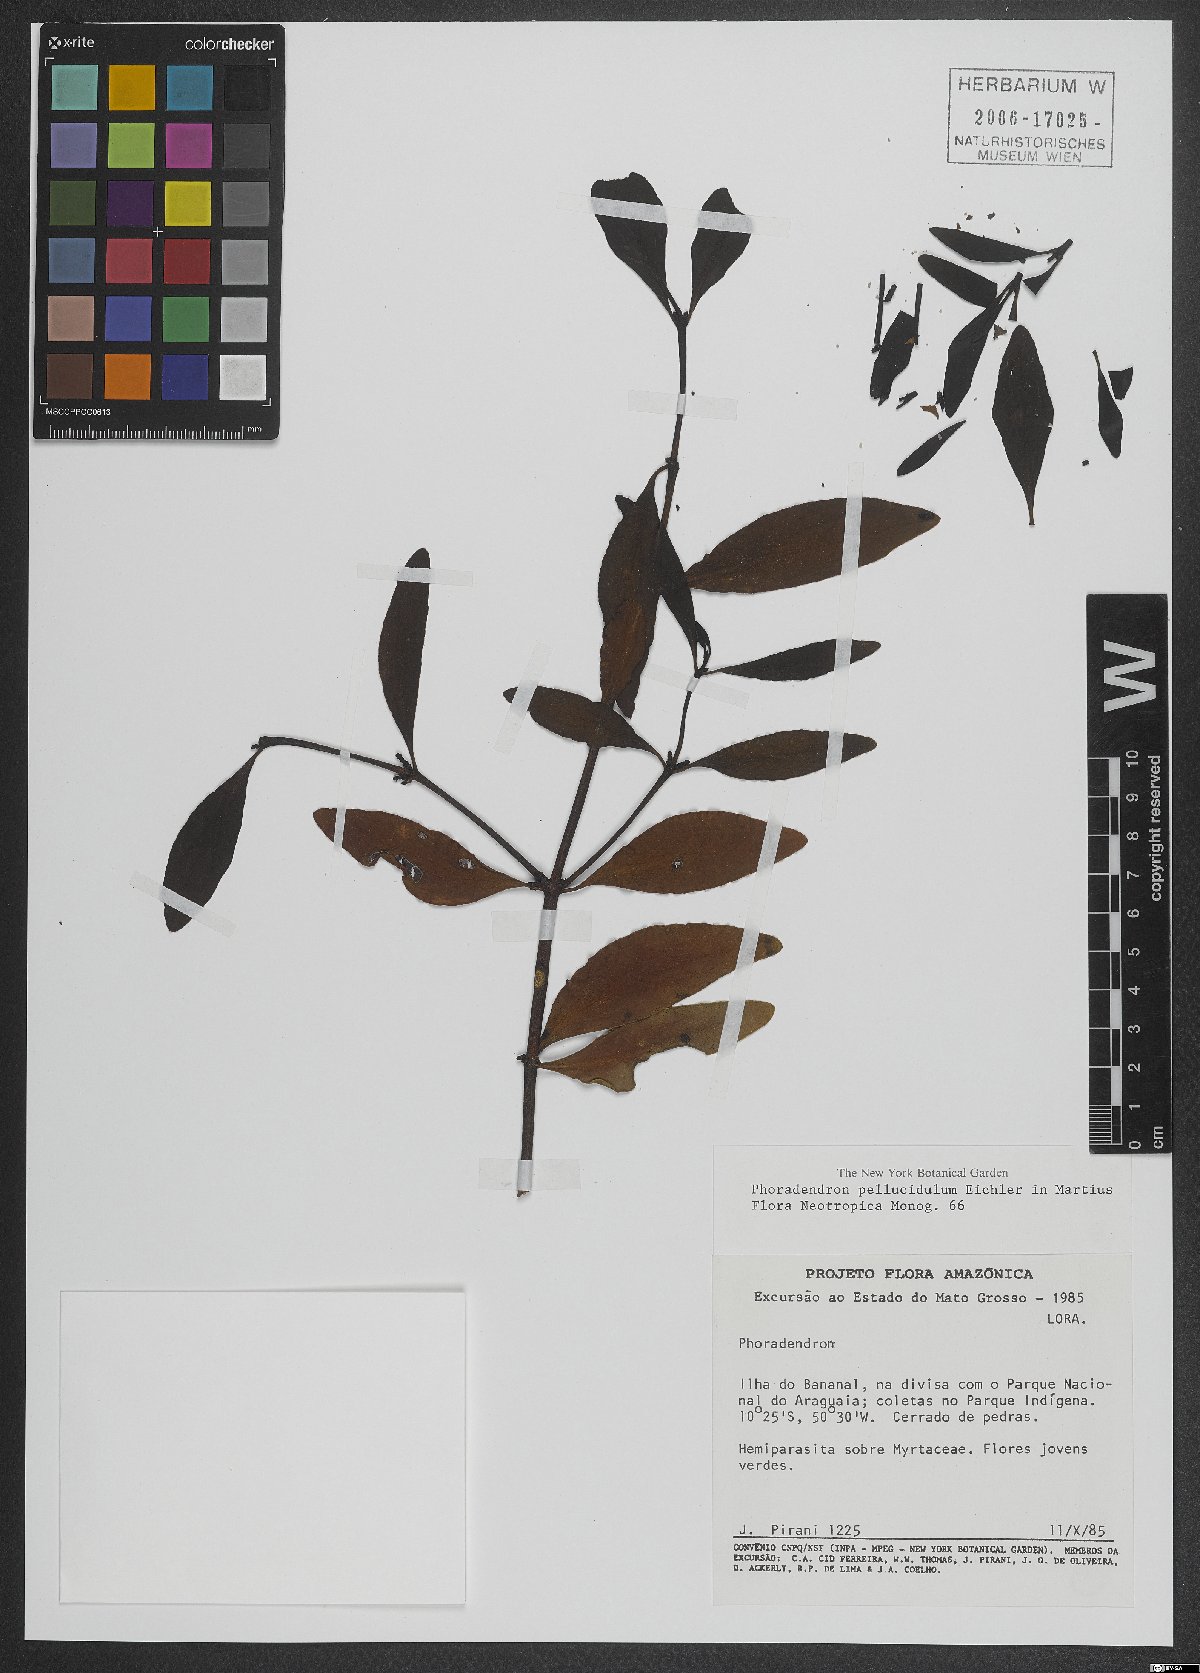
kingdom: Plantae
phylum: Tracheophyta
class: Magnoliopsida
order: Santalales
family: Viscaceae
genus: Phoradendron
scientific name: Phoradendron pellucidulum
